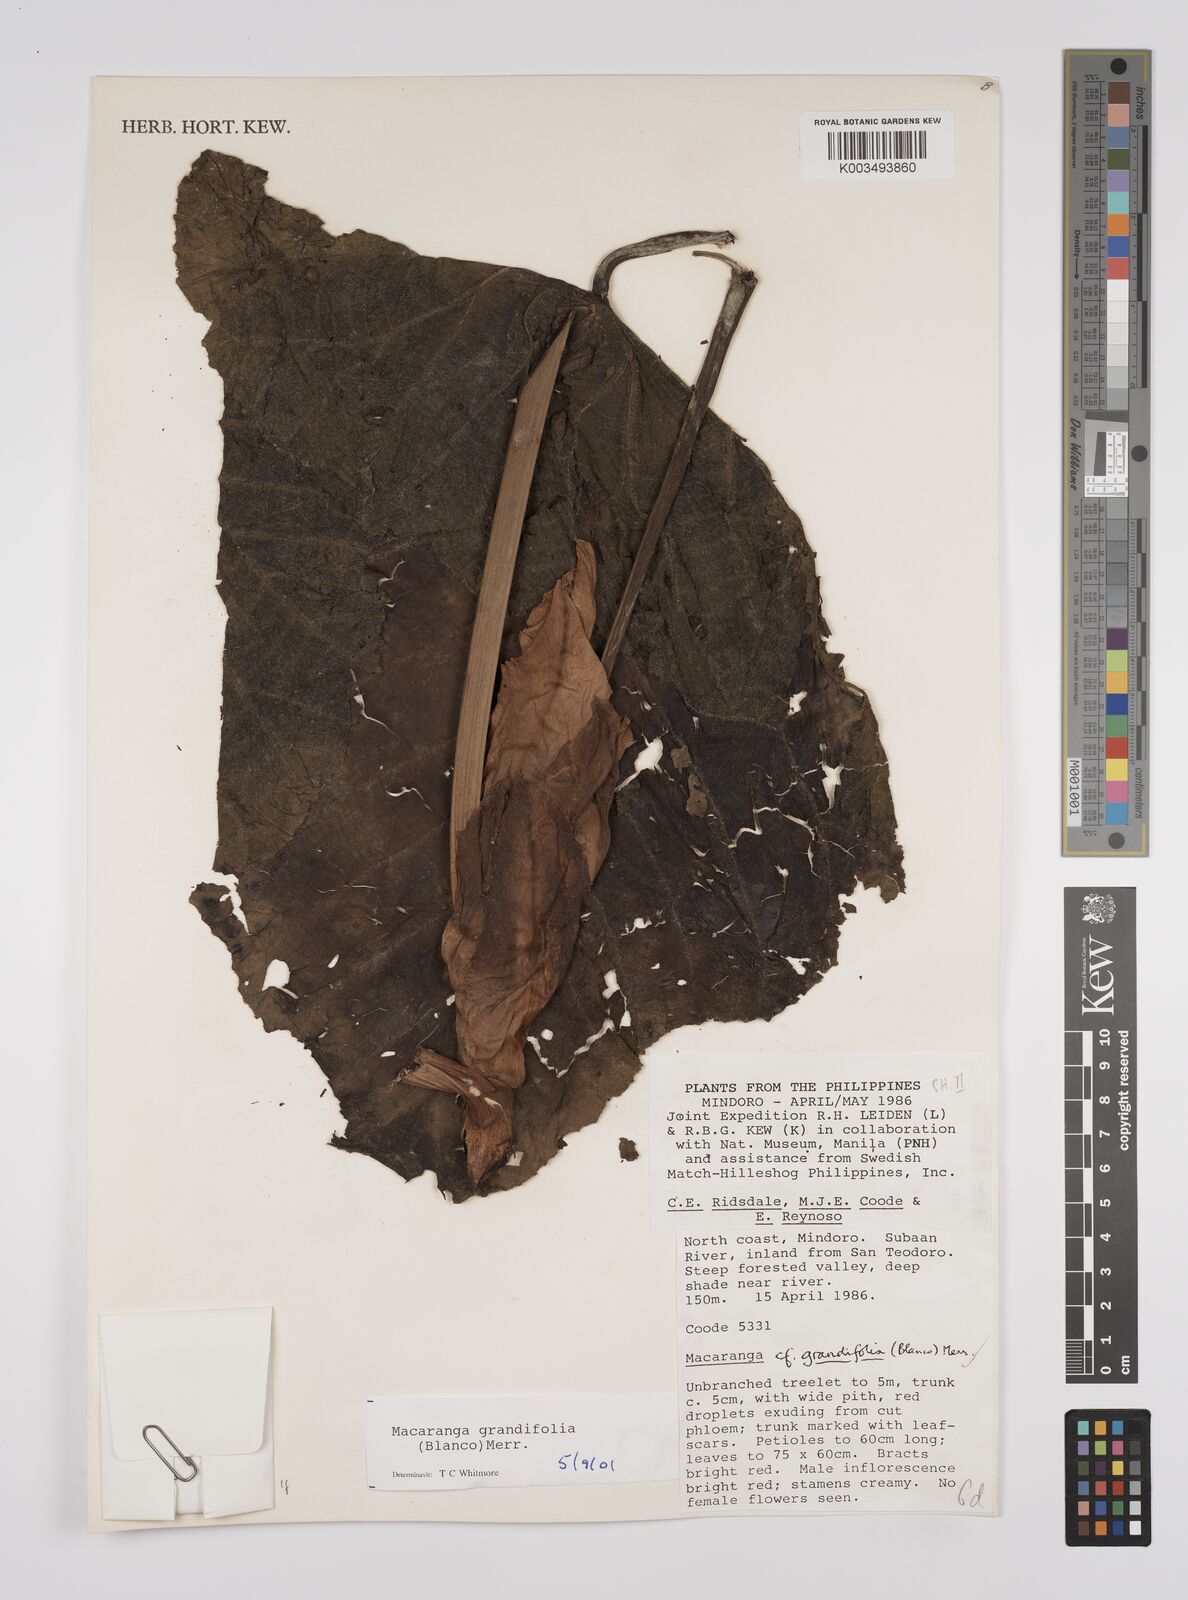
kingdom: Plantae
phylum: Tracheophyta
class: Magnoliopsida
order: Malpighiales
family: Euphorbiaceae
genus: Macaranga
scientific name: Macaranga grandifolia
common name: Coraltree
